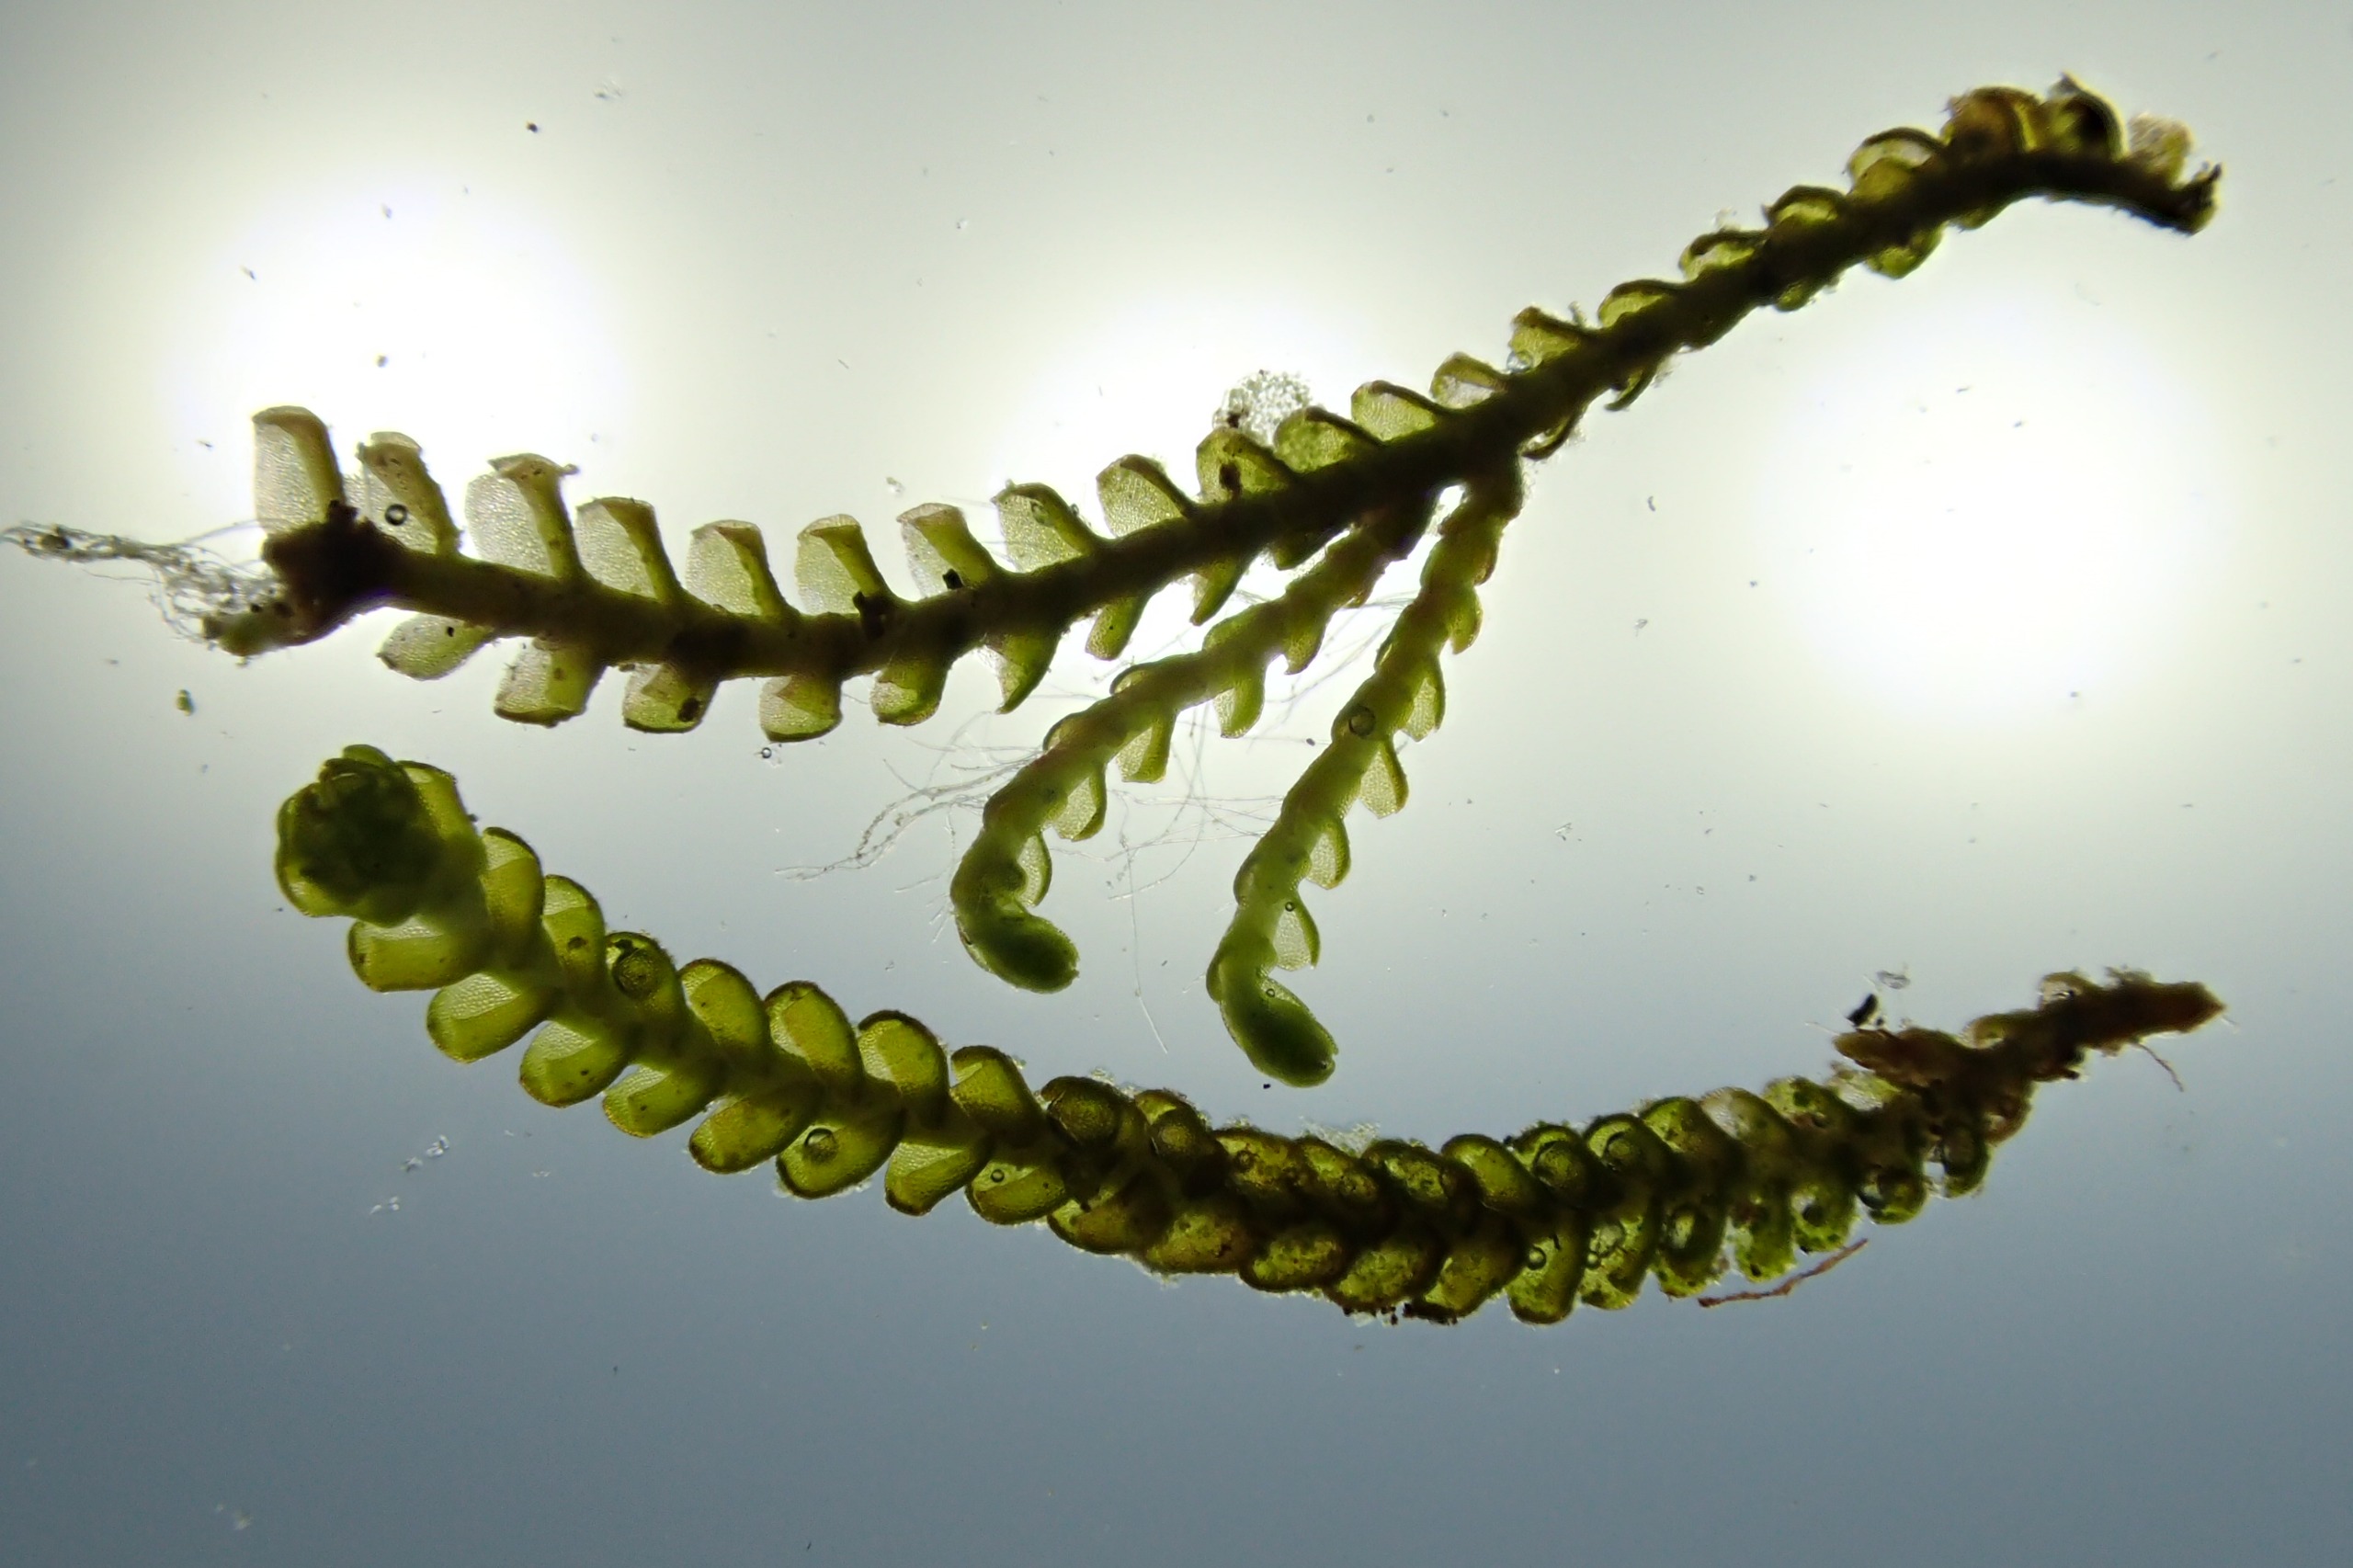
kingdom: Plantae
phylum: Marchantiophyta
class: Jungermanniopsida
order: Jungermanniales
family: Anastrophyllaceae
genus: Sphenolobus
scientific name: Sphenolobus minutus
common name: Liden rendeblad
